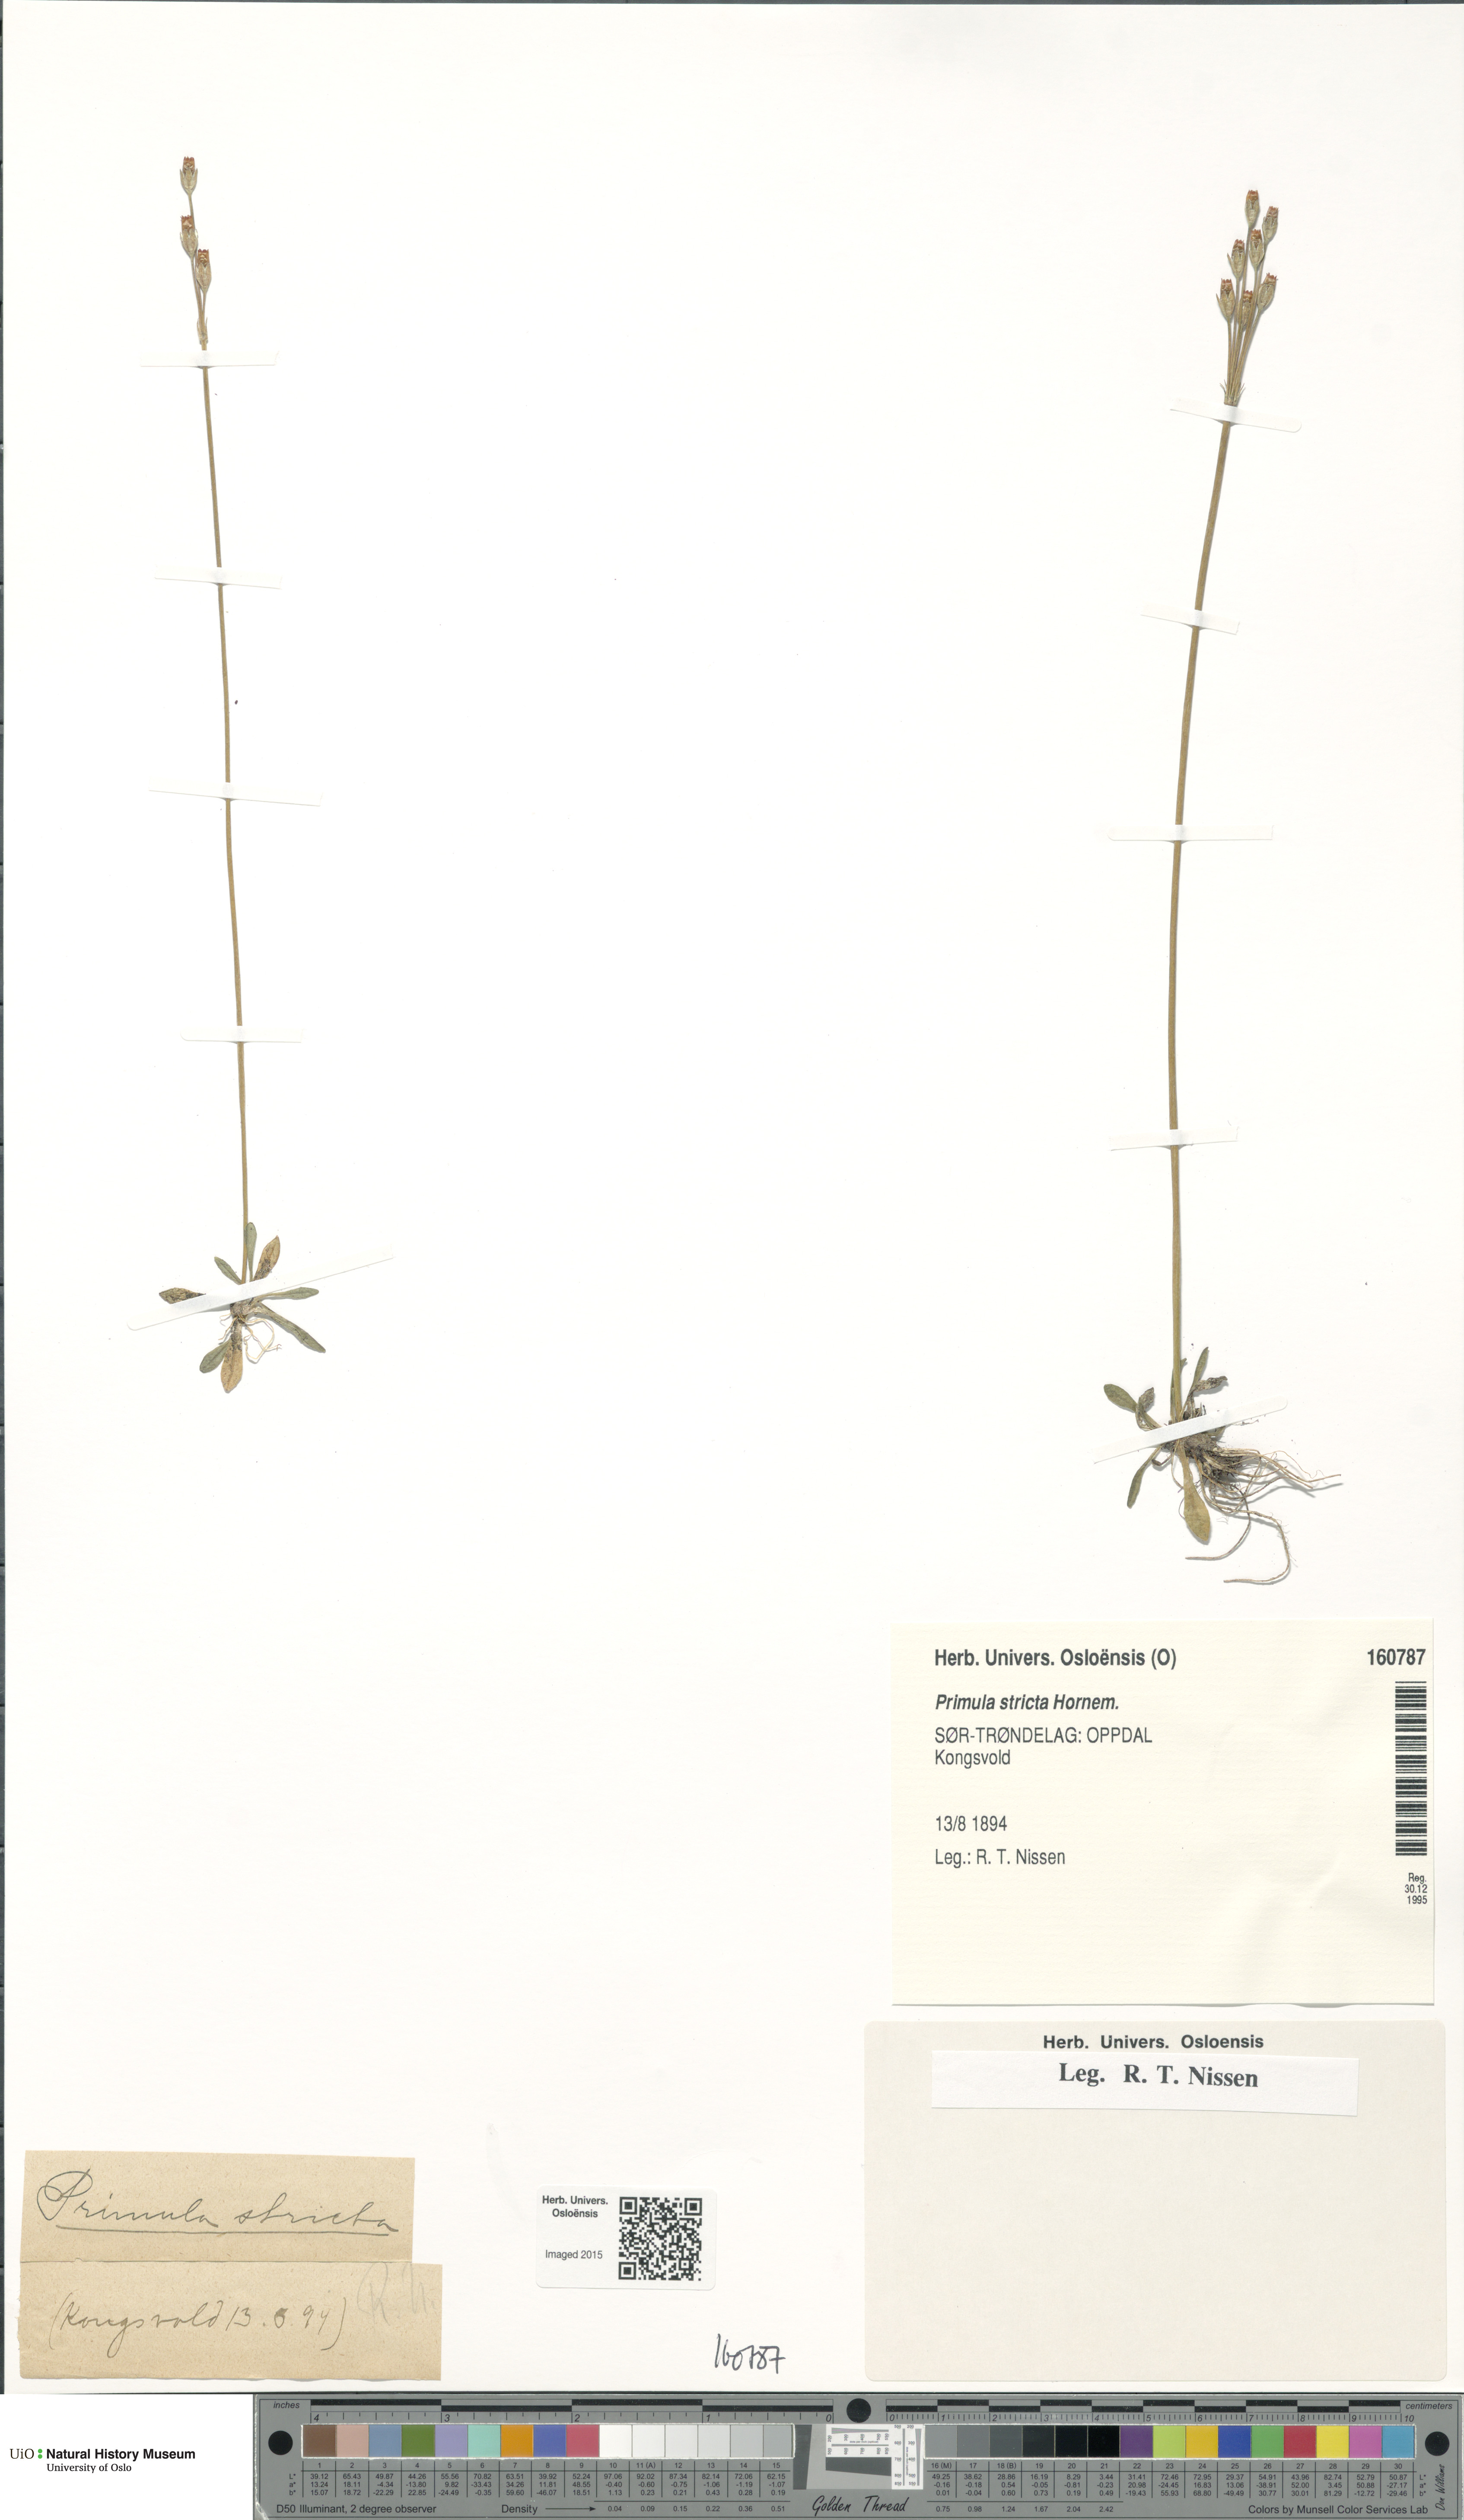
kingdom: Plantae
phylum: Tracheophyta
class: Magnoliopsida
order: Ericales
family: Primulaceae
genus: Primula
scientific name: Primula stricta
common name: Coastal primrose
